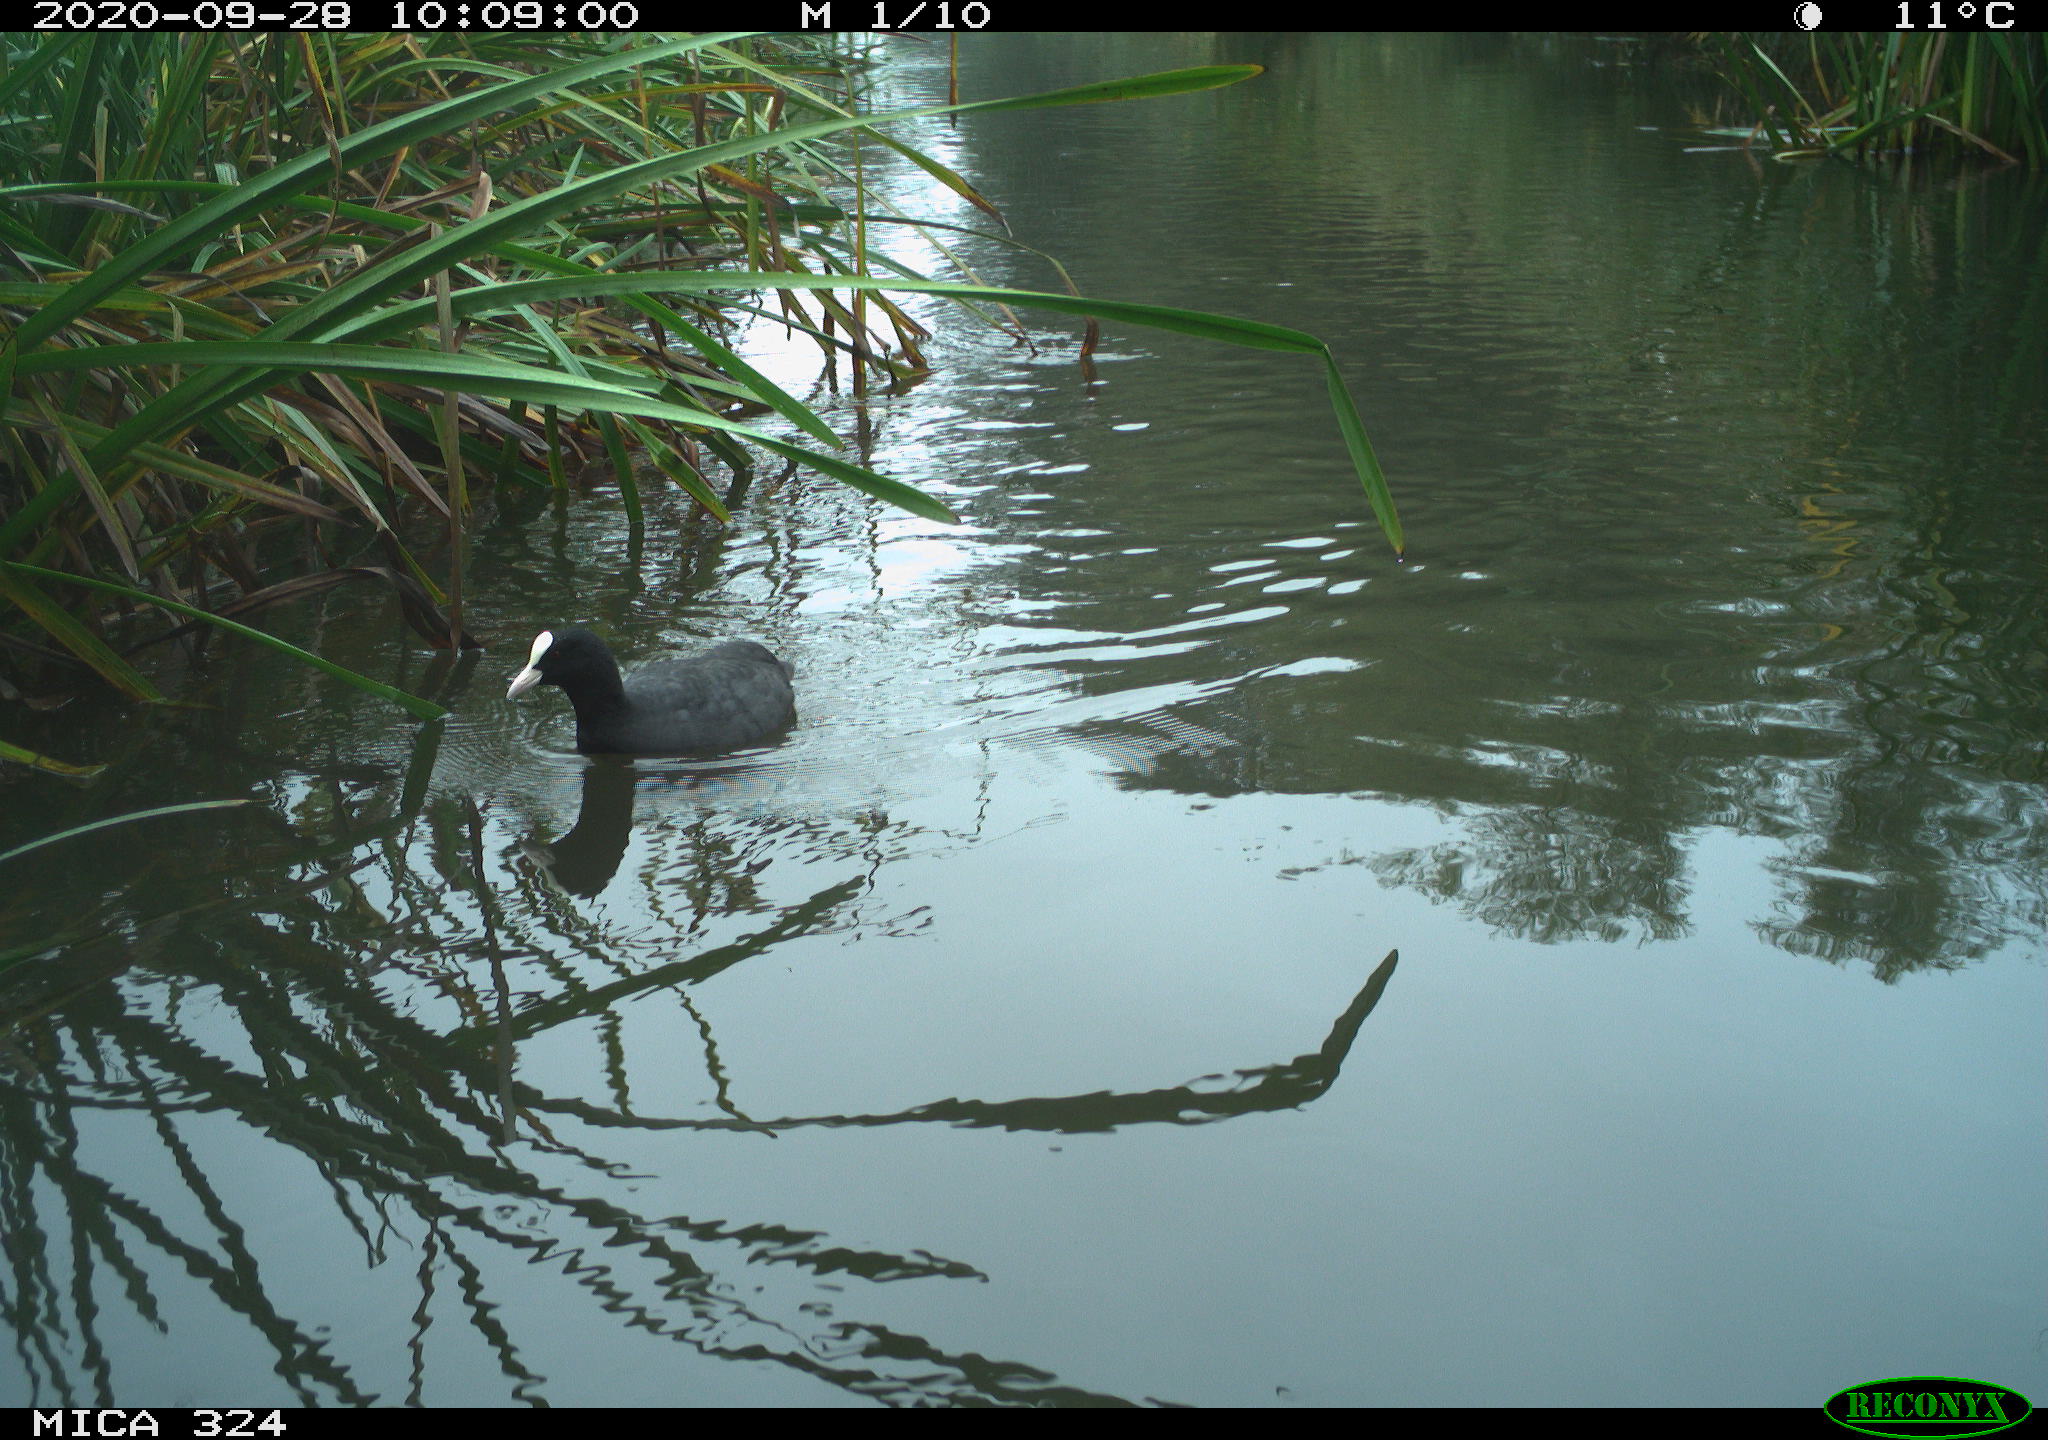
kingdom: Animalia
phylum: Chordata
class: Aves
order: Gruiformes
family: Rallidae
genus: Fulica
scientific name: Fulica atra
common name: Eurasian coot
